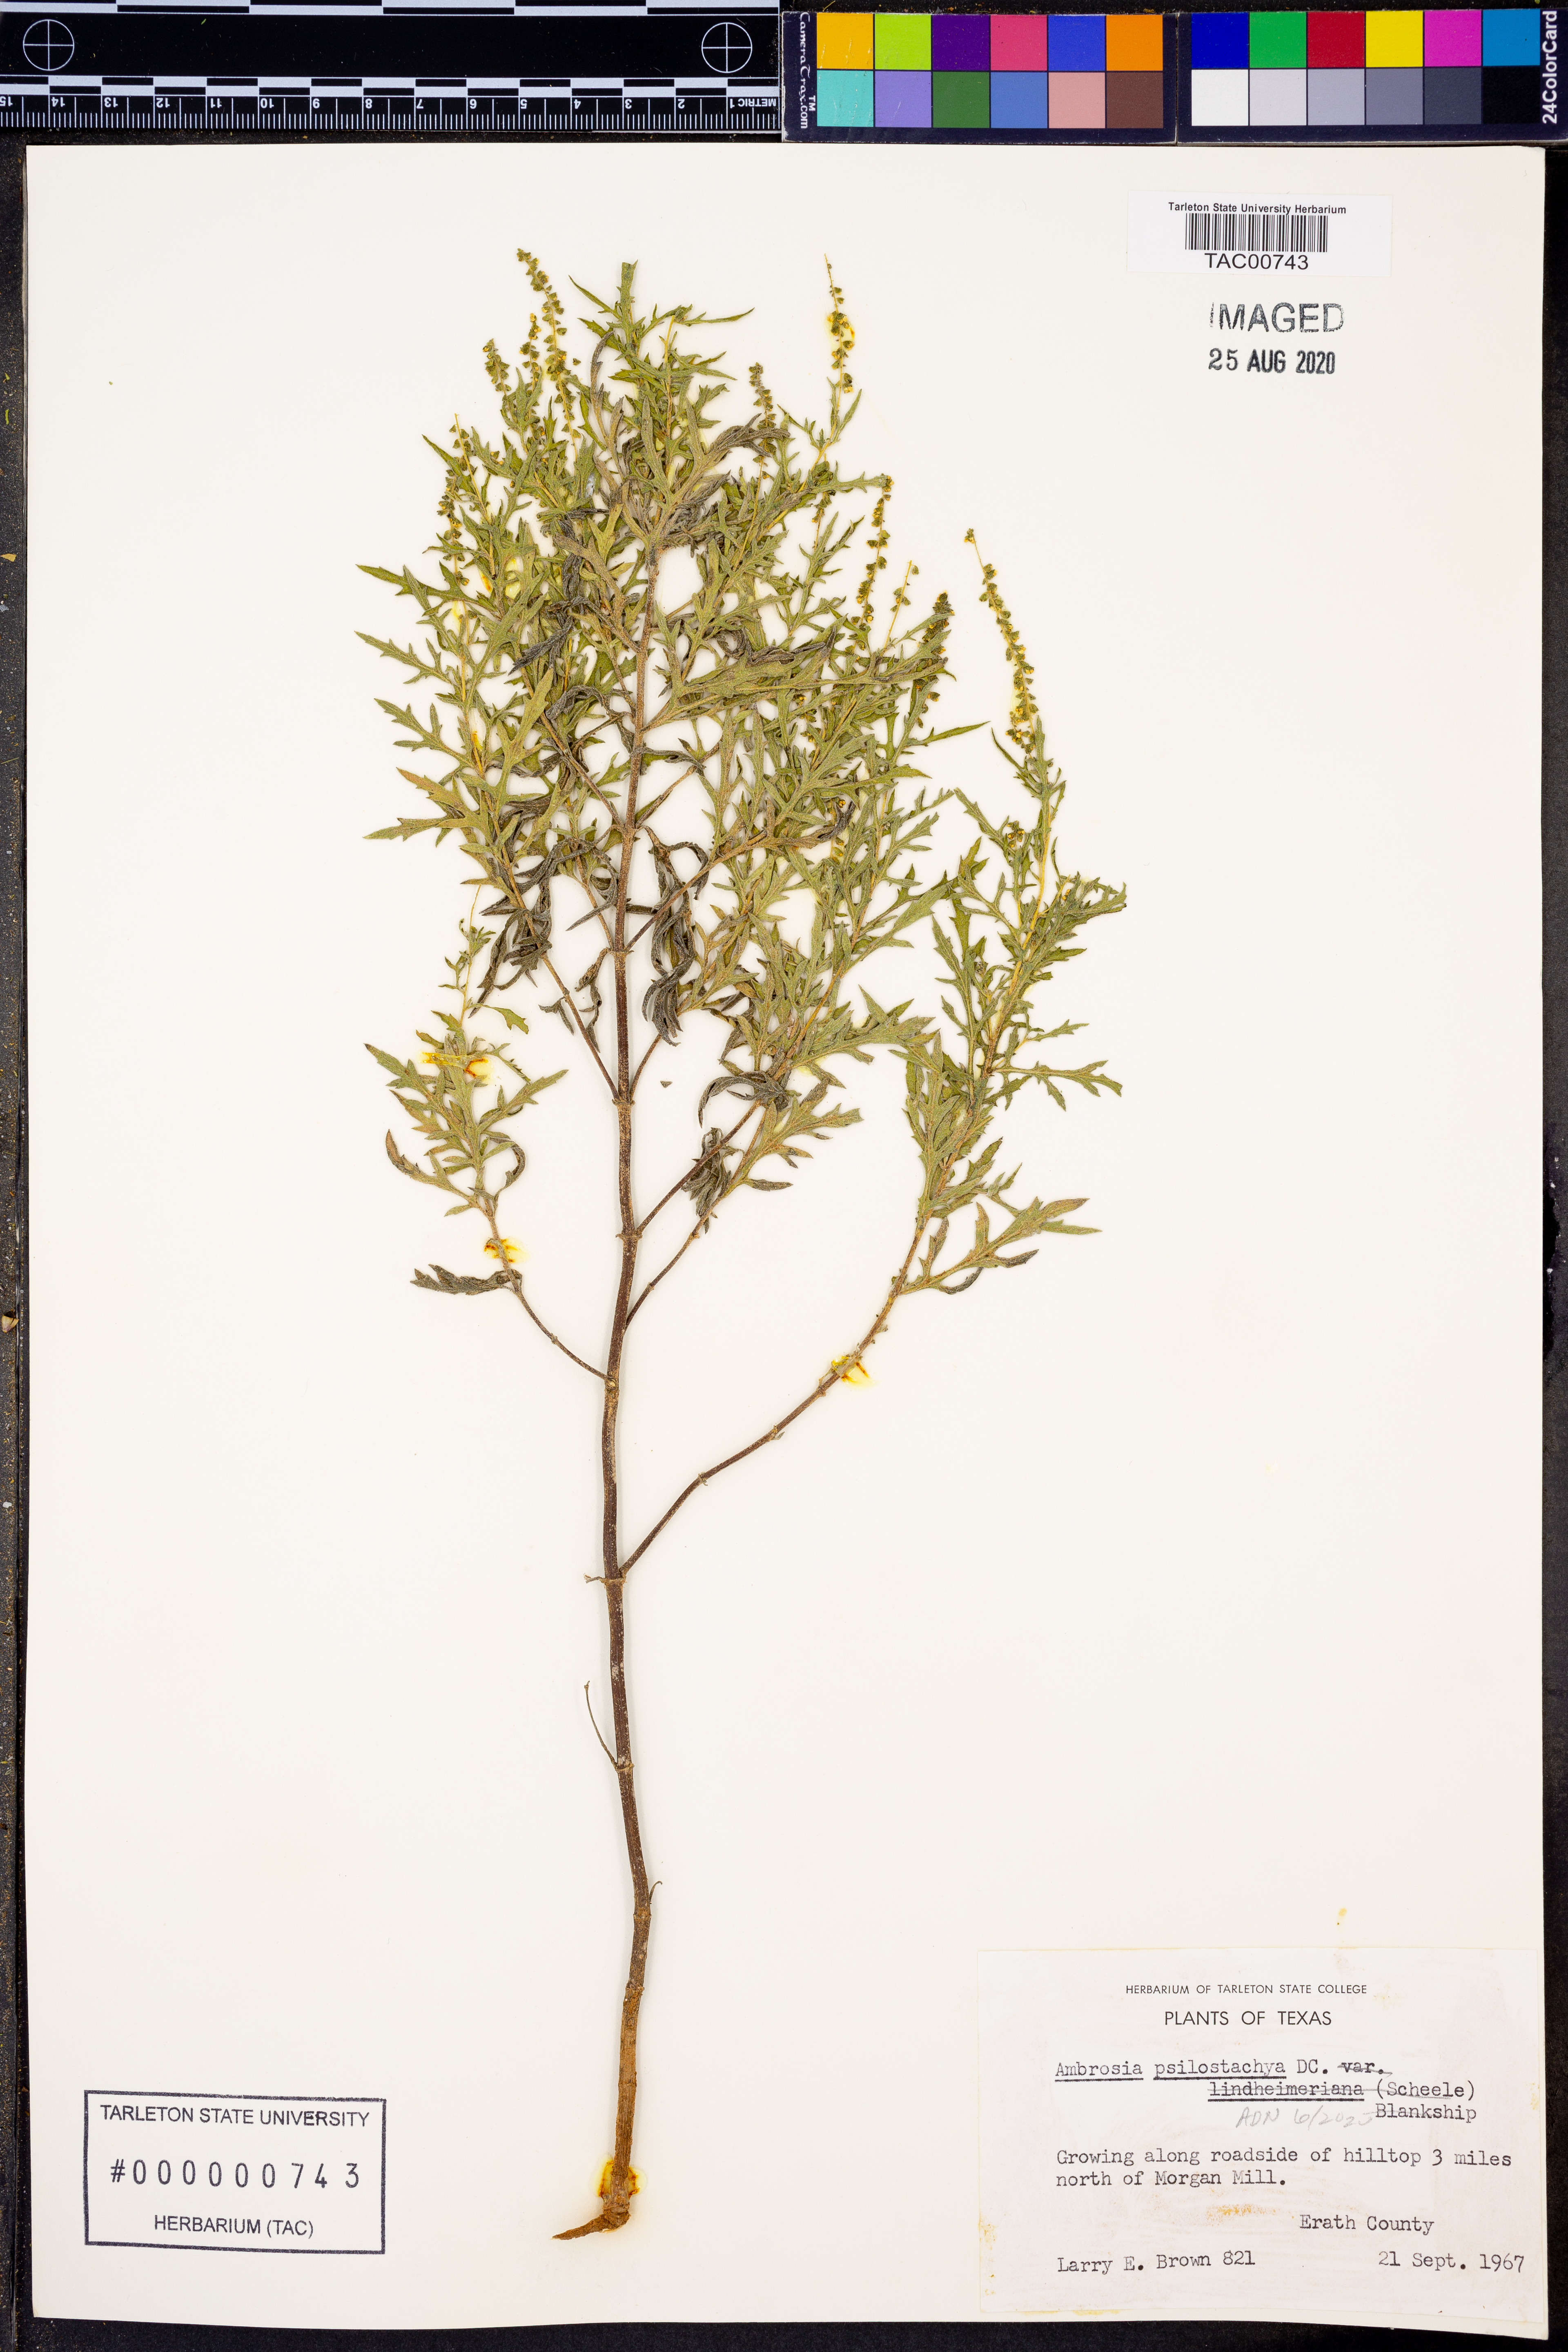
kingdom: Plantae
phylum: Tracheophyta
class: Magnoliopsida
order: Asterales
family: Asteraceae
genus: Ambrosia
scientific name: Ambrosia psilostachya
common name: Perennial ragweed
